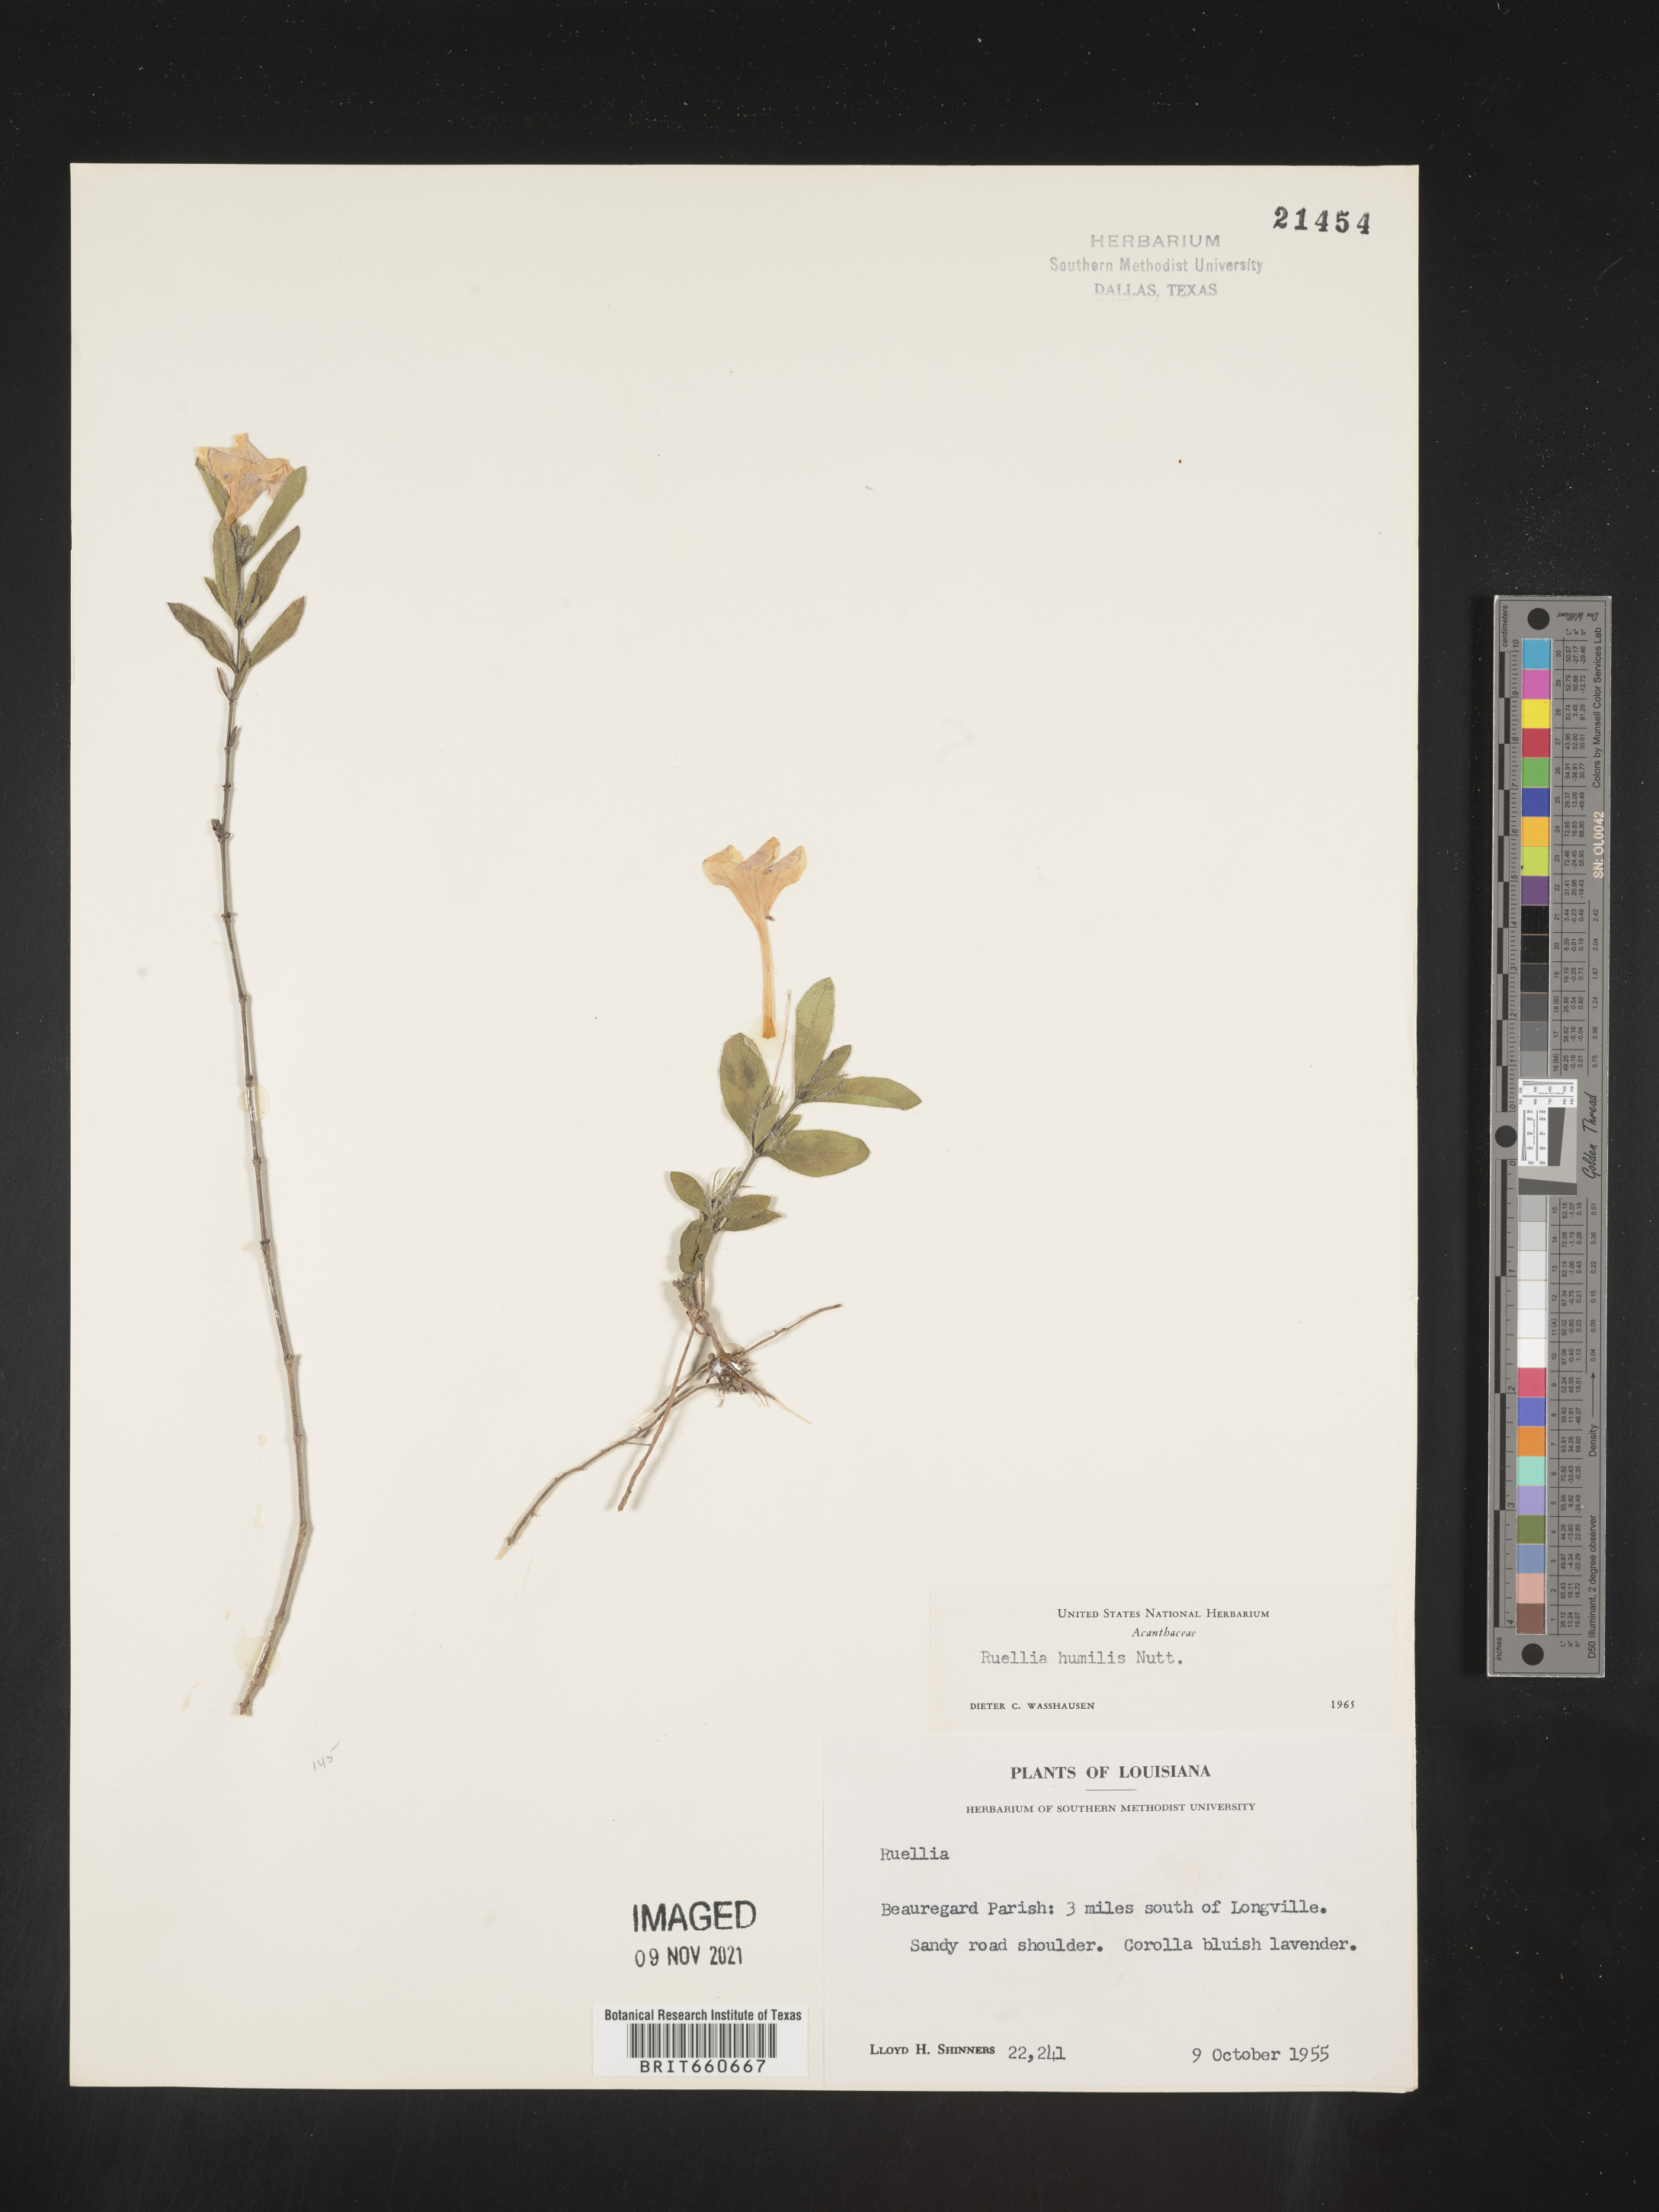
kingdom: Plantae
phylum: Tracheophyta
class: Magnoliopsida
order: Lamiales
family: Acanthaceae
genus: Ruellia
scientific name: Ruellia humilis
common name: Fringe-leaf ruellia
